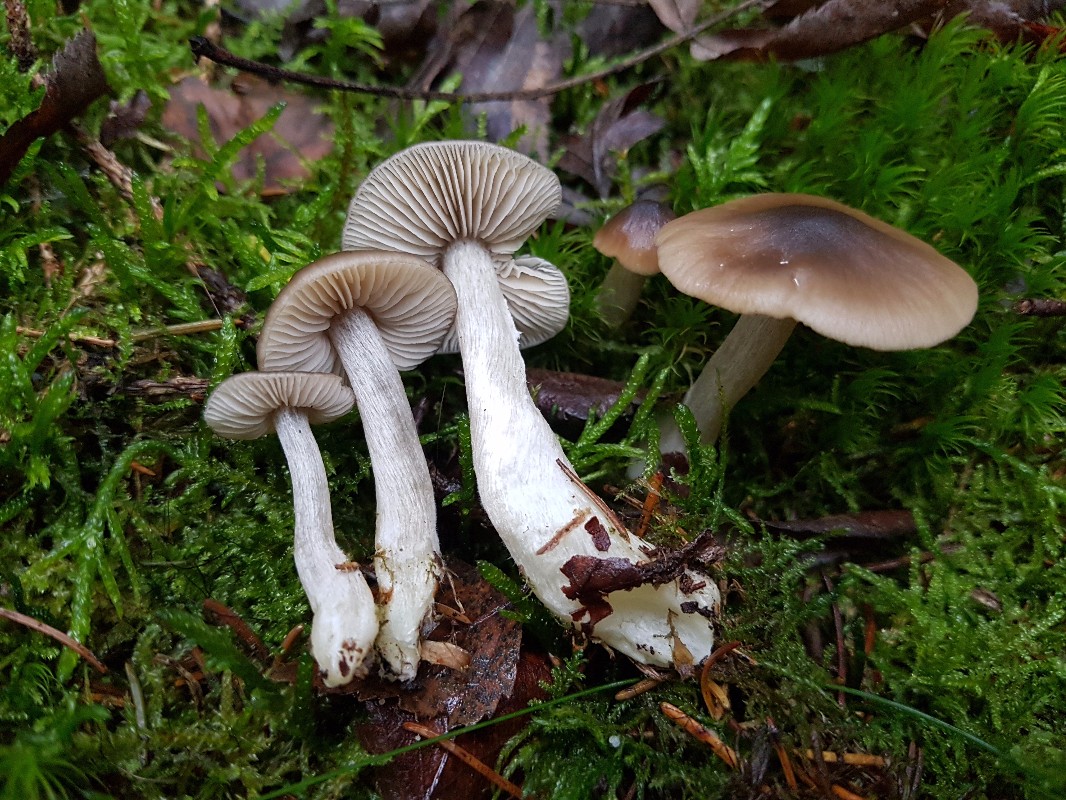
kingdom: Fungi
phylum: Basidiomycota
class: Agaricomycetes
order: Agaricales
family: Entolomataceae
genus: Entocybe
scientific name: Entocybe turbida
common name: plantage-rødblad
